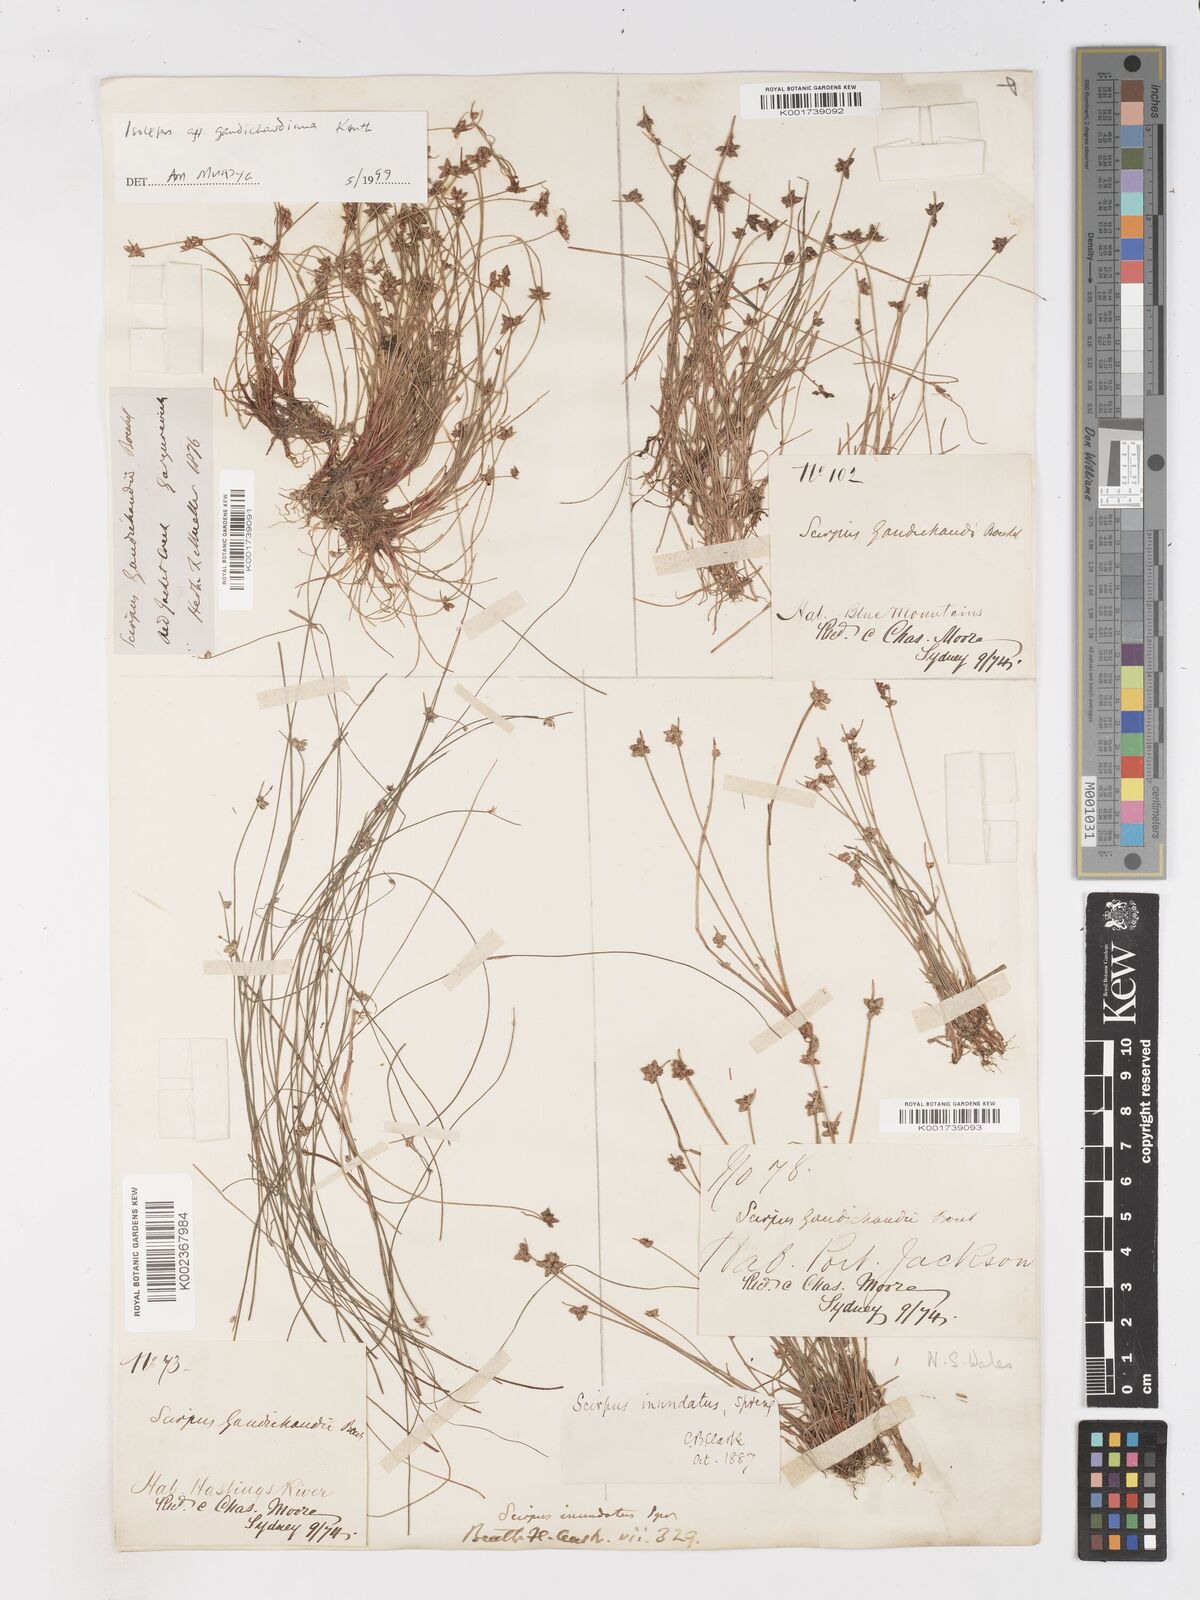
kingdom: Plantae
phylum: Tracheophyta
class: Liliopsida
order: Poales
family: Cyperaceae
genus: Isolepis
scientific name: Isolepis inundata
